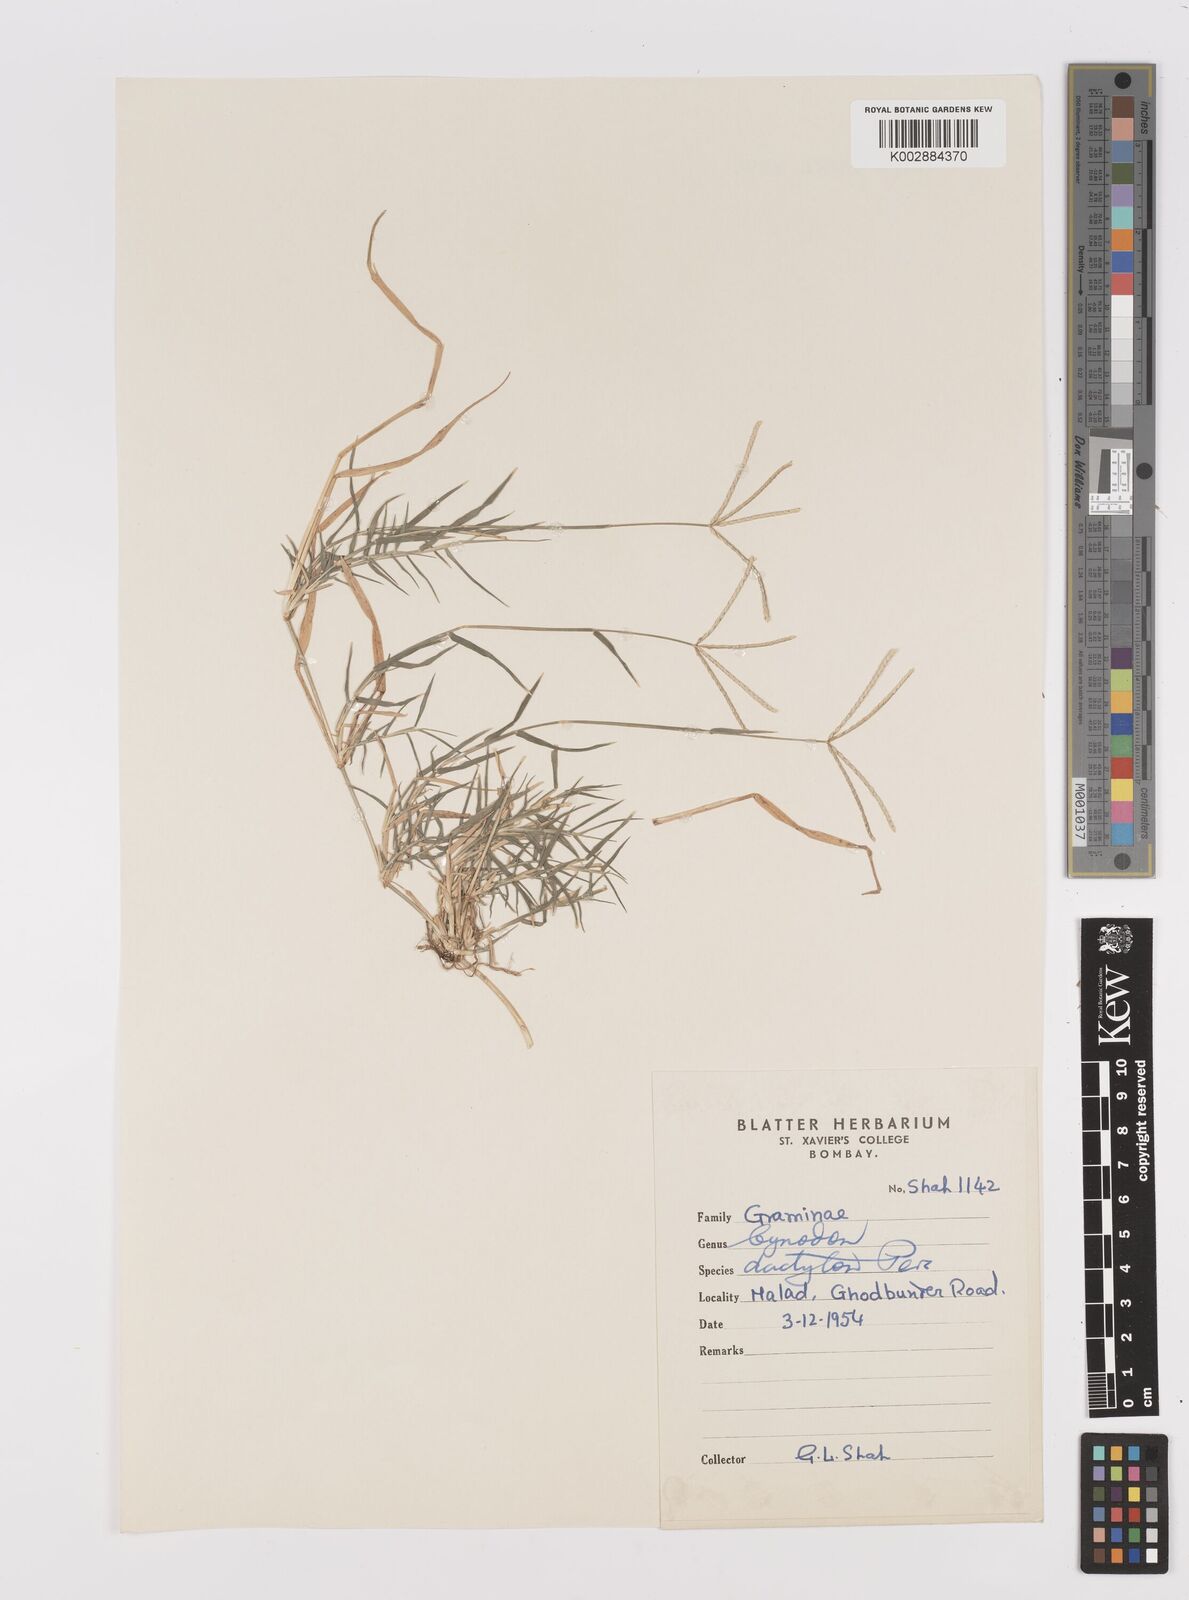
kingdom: Plantae
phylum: Tracheophyta
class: Liliopsida
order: Poales
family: Poaceae
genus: Cynodon
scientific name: Cynodon dactylon
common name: Bermuda grass
